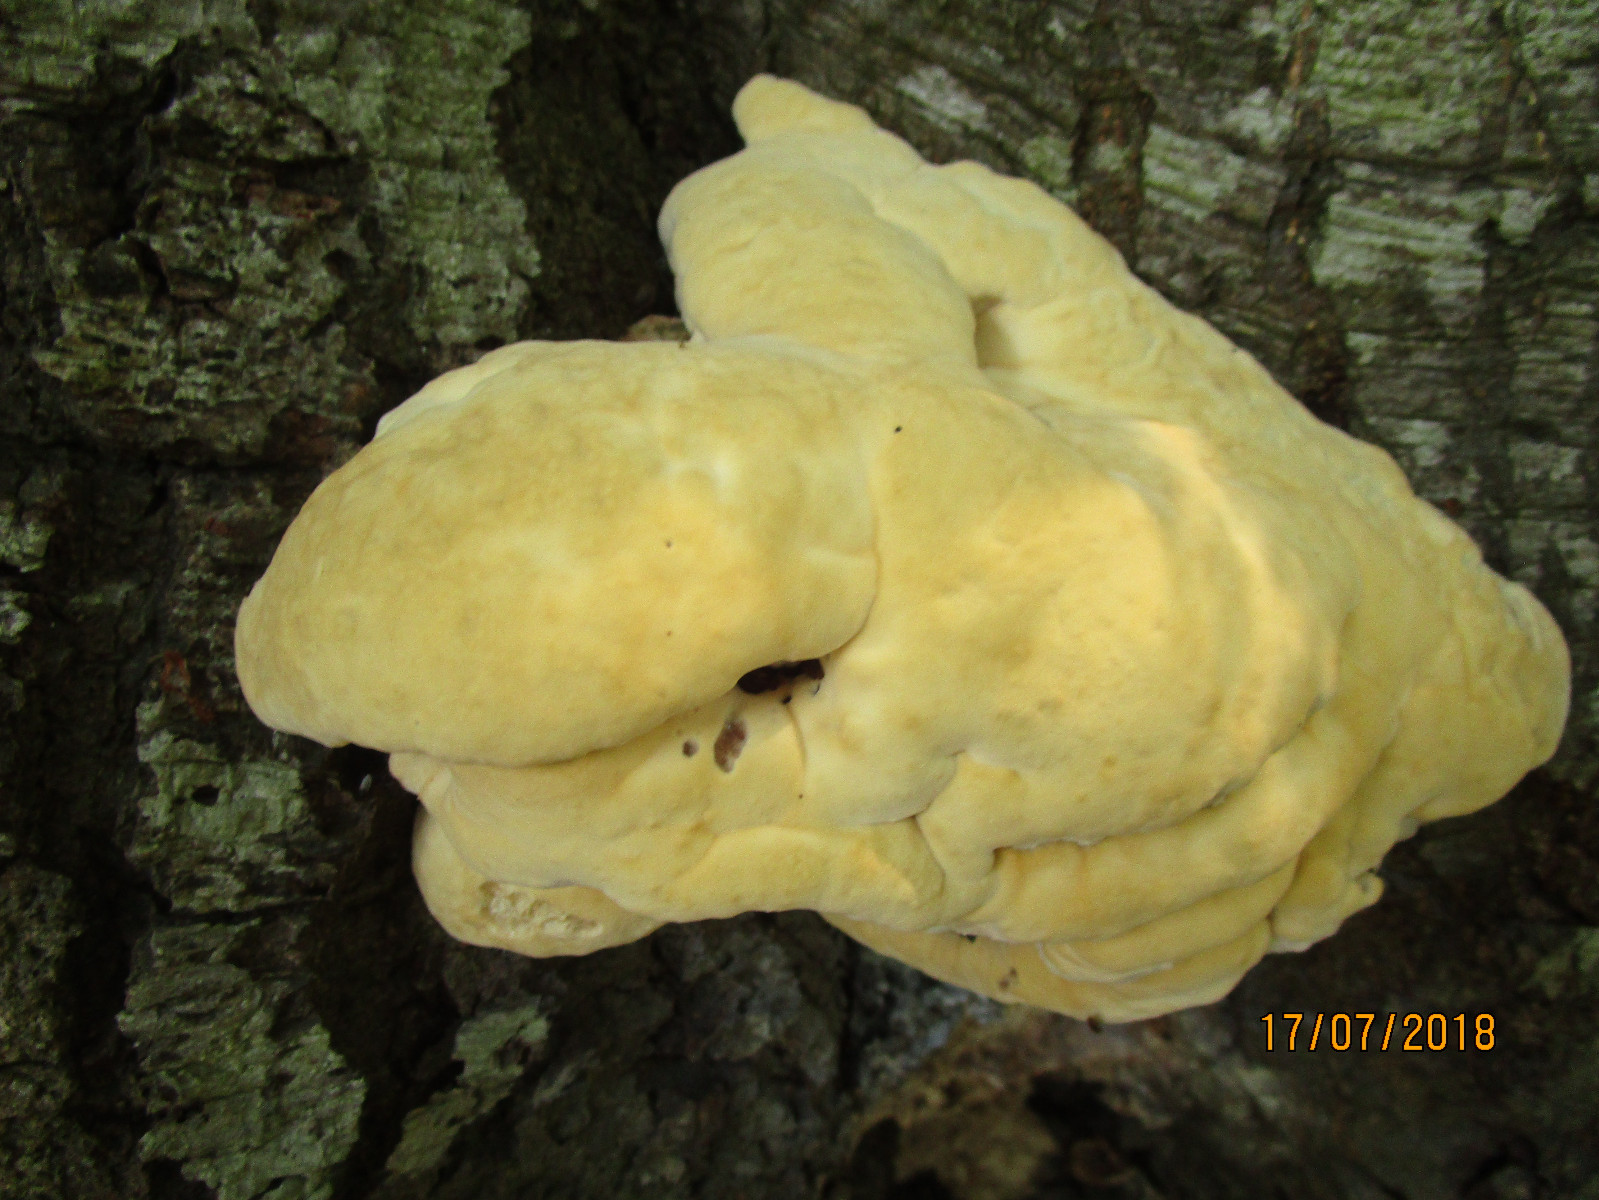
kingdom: Fungi
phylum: Basidiomycota
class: Agaricomycetes
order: Polyporales
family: Polyporaceae
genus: Vanderbylia
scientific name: Vanderbylia fraxinea
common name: stor kanelporesvamp
